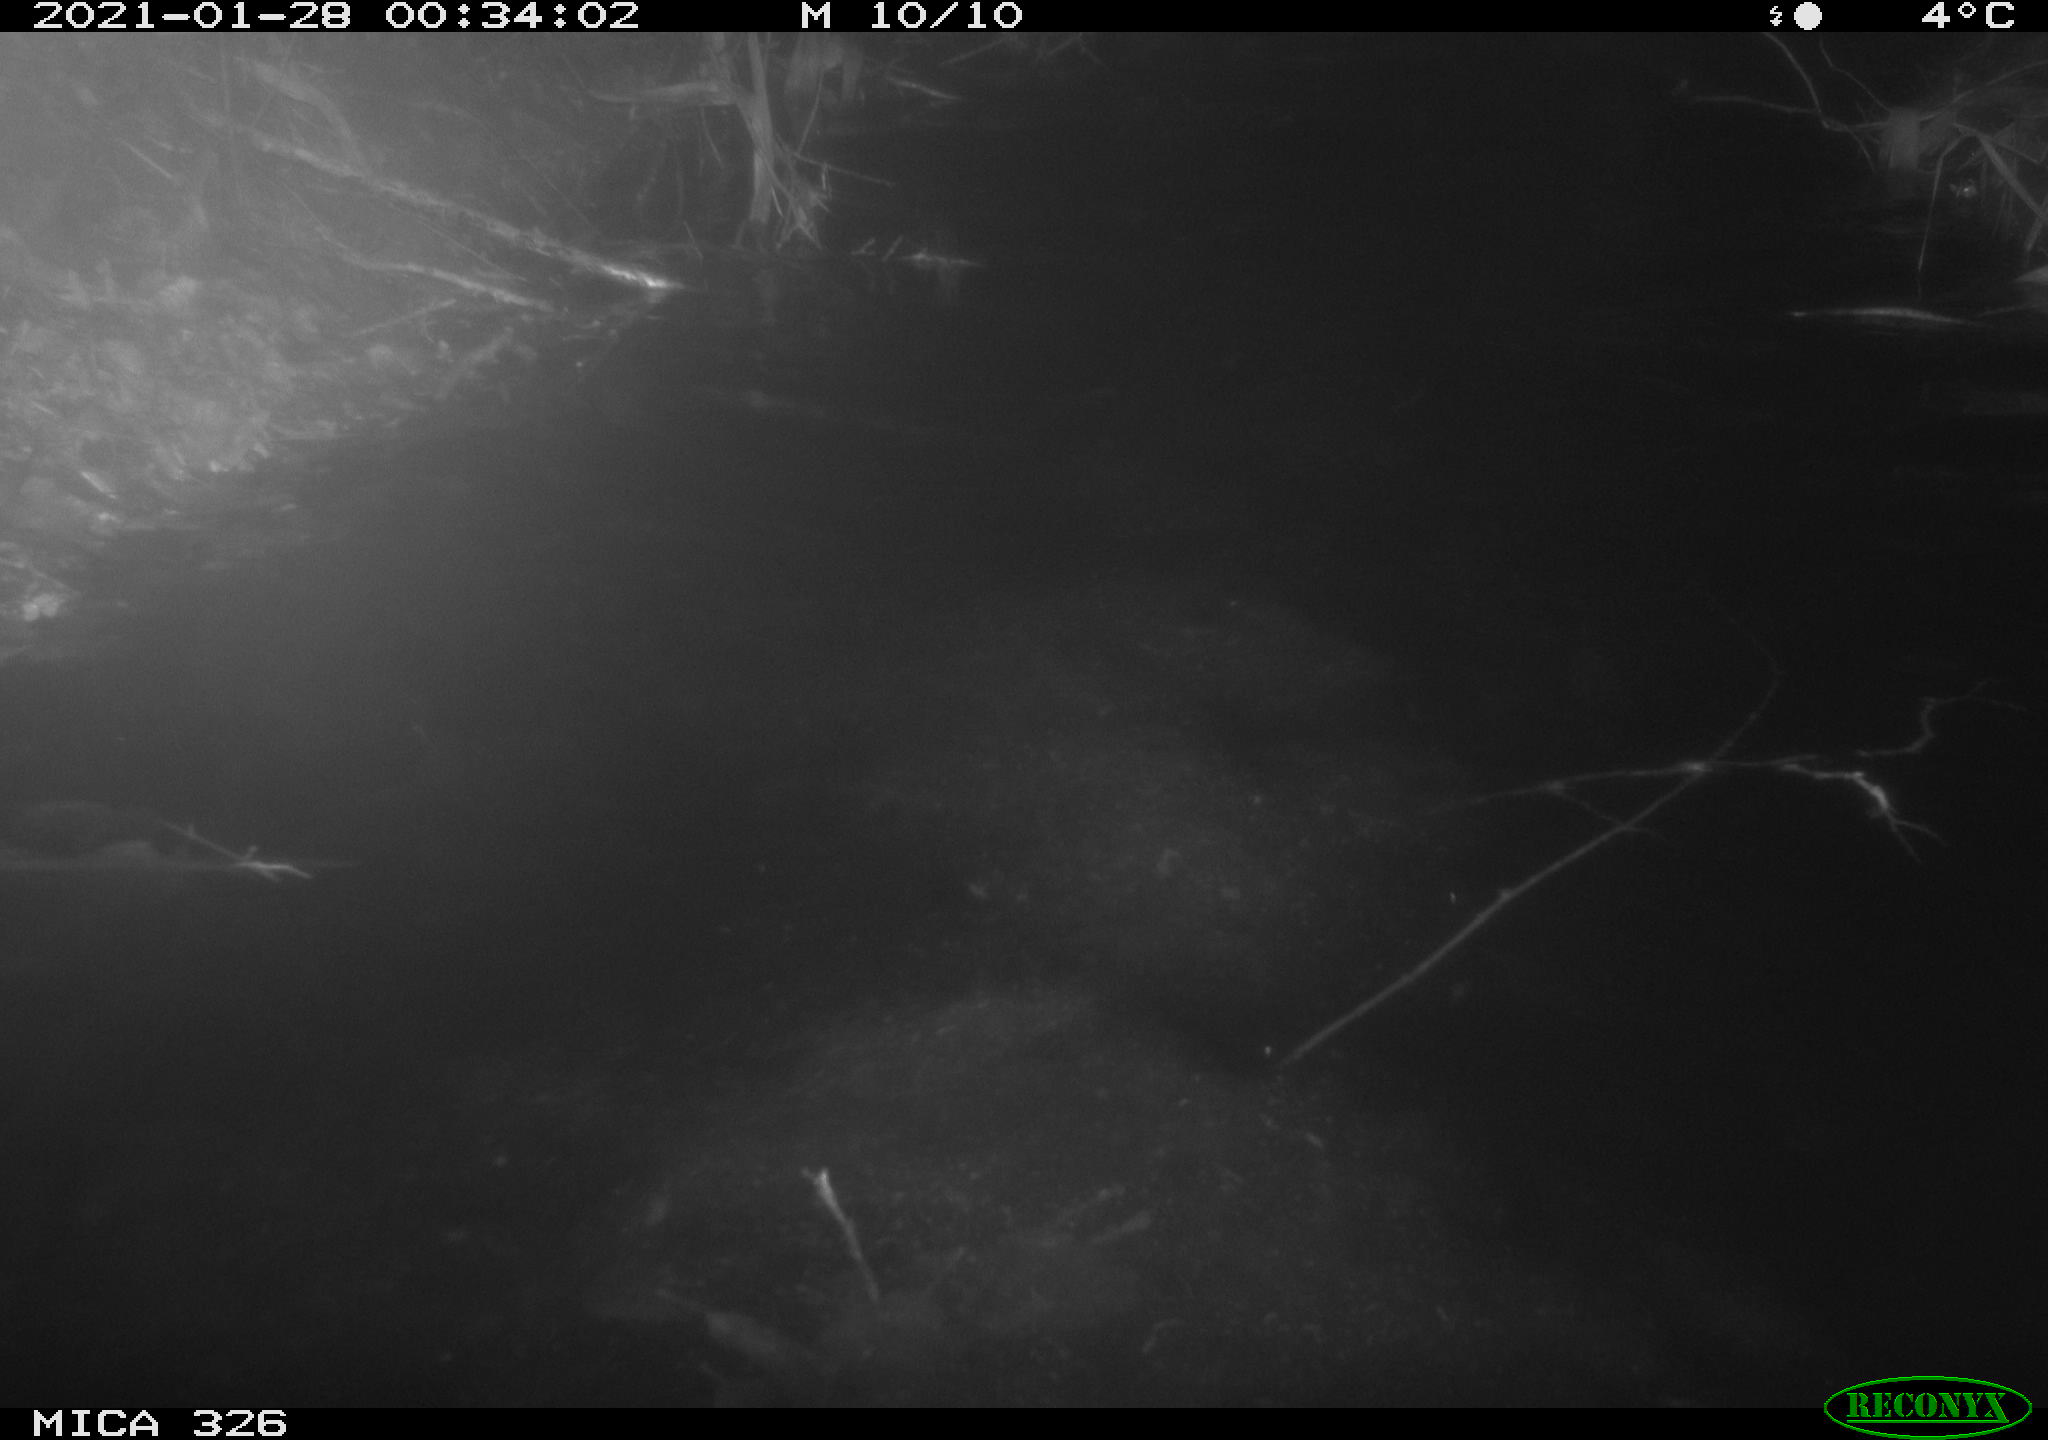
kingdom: Animalia
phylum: Chordata
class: Mammalia
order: Carnivora
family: Mustelidae
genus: Lutra
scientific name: Lutra lutra
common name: European otter
